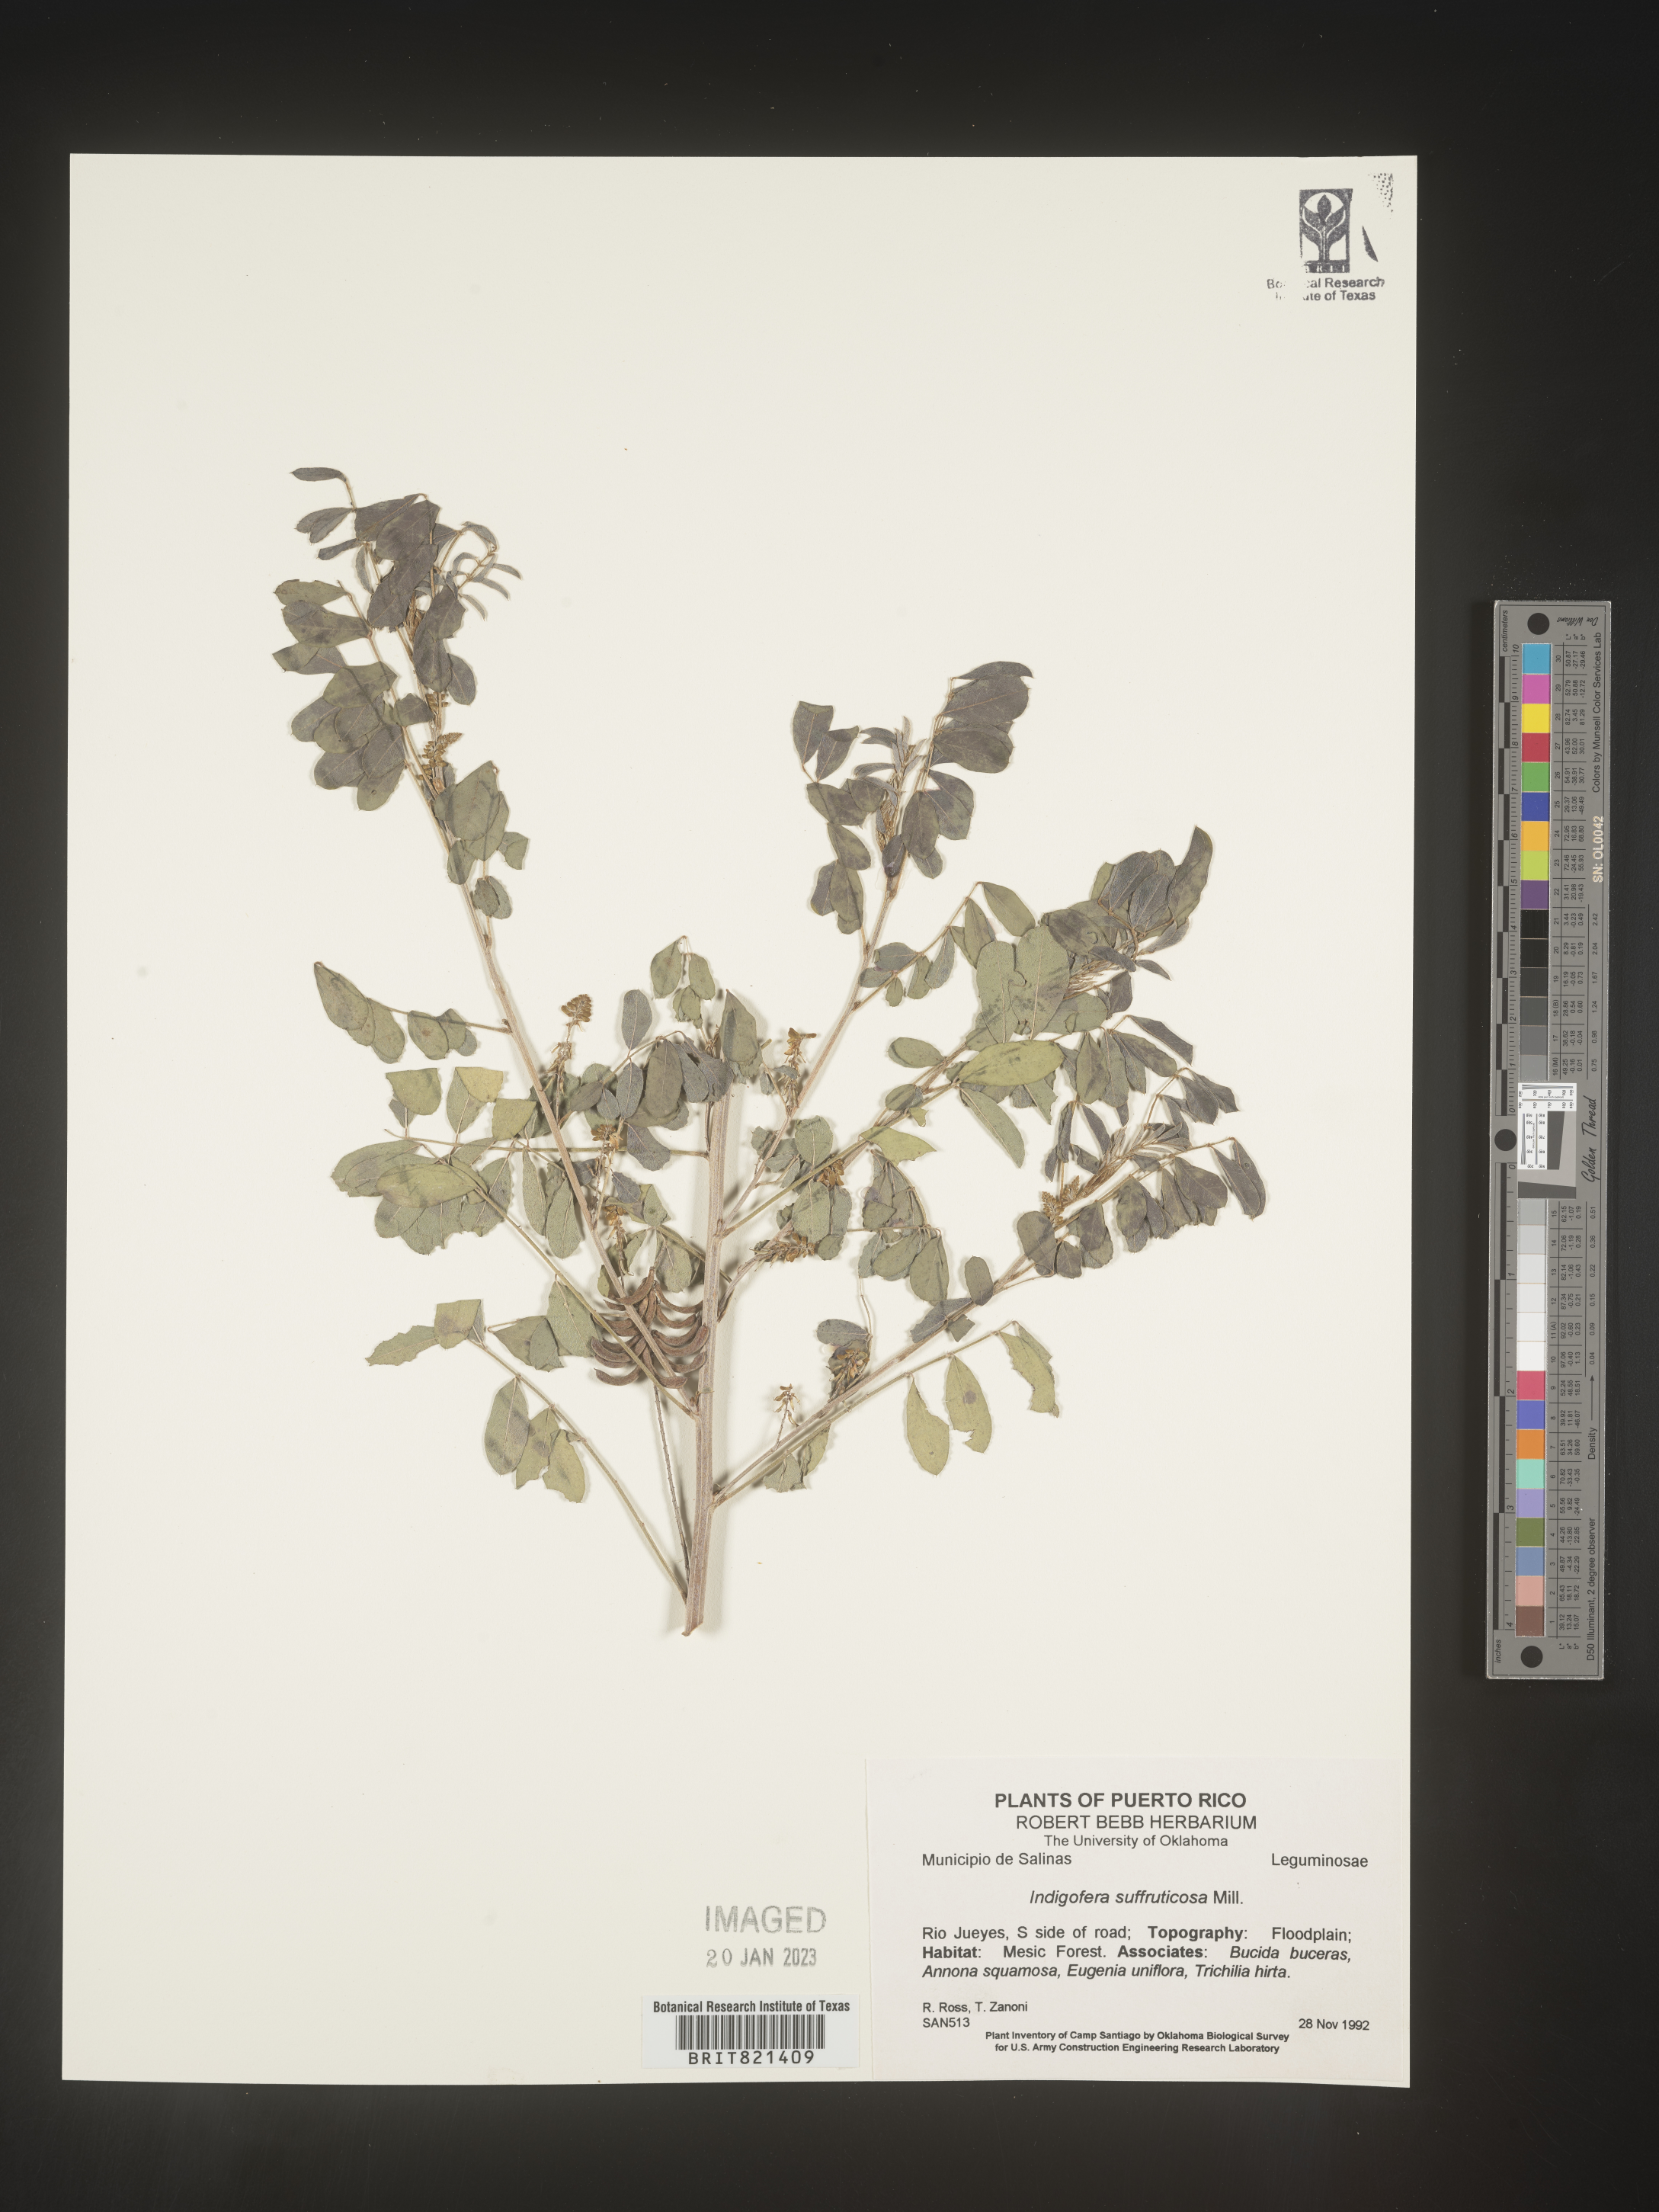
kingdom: Plantae
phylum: Tracheophyta
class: Magnoliopsida
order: Fabales
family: Fabaceae
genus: Indigofera
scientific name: Indigofera
